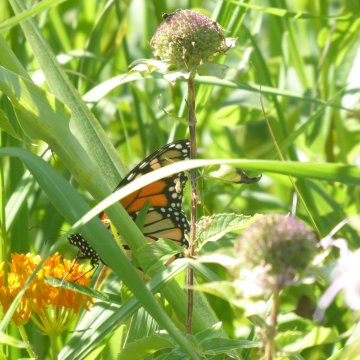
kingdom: Animalia
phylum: Arthropoda
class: Insecta
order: Lepidoptera
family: Nymphalidae
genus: Danaus
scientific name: Danaus plexippus
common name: Monarch
